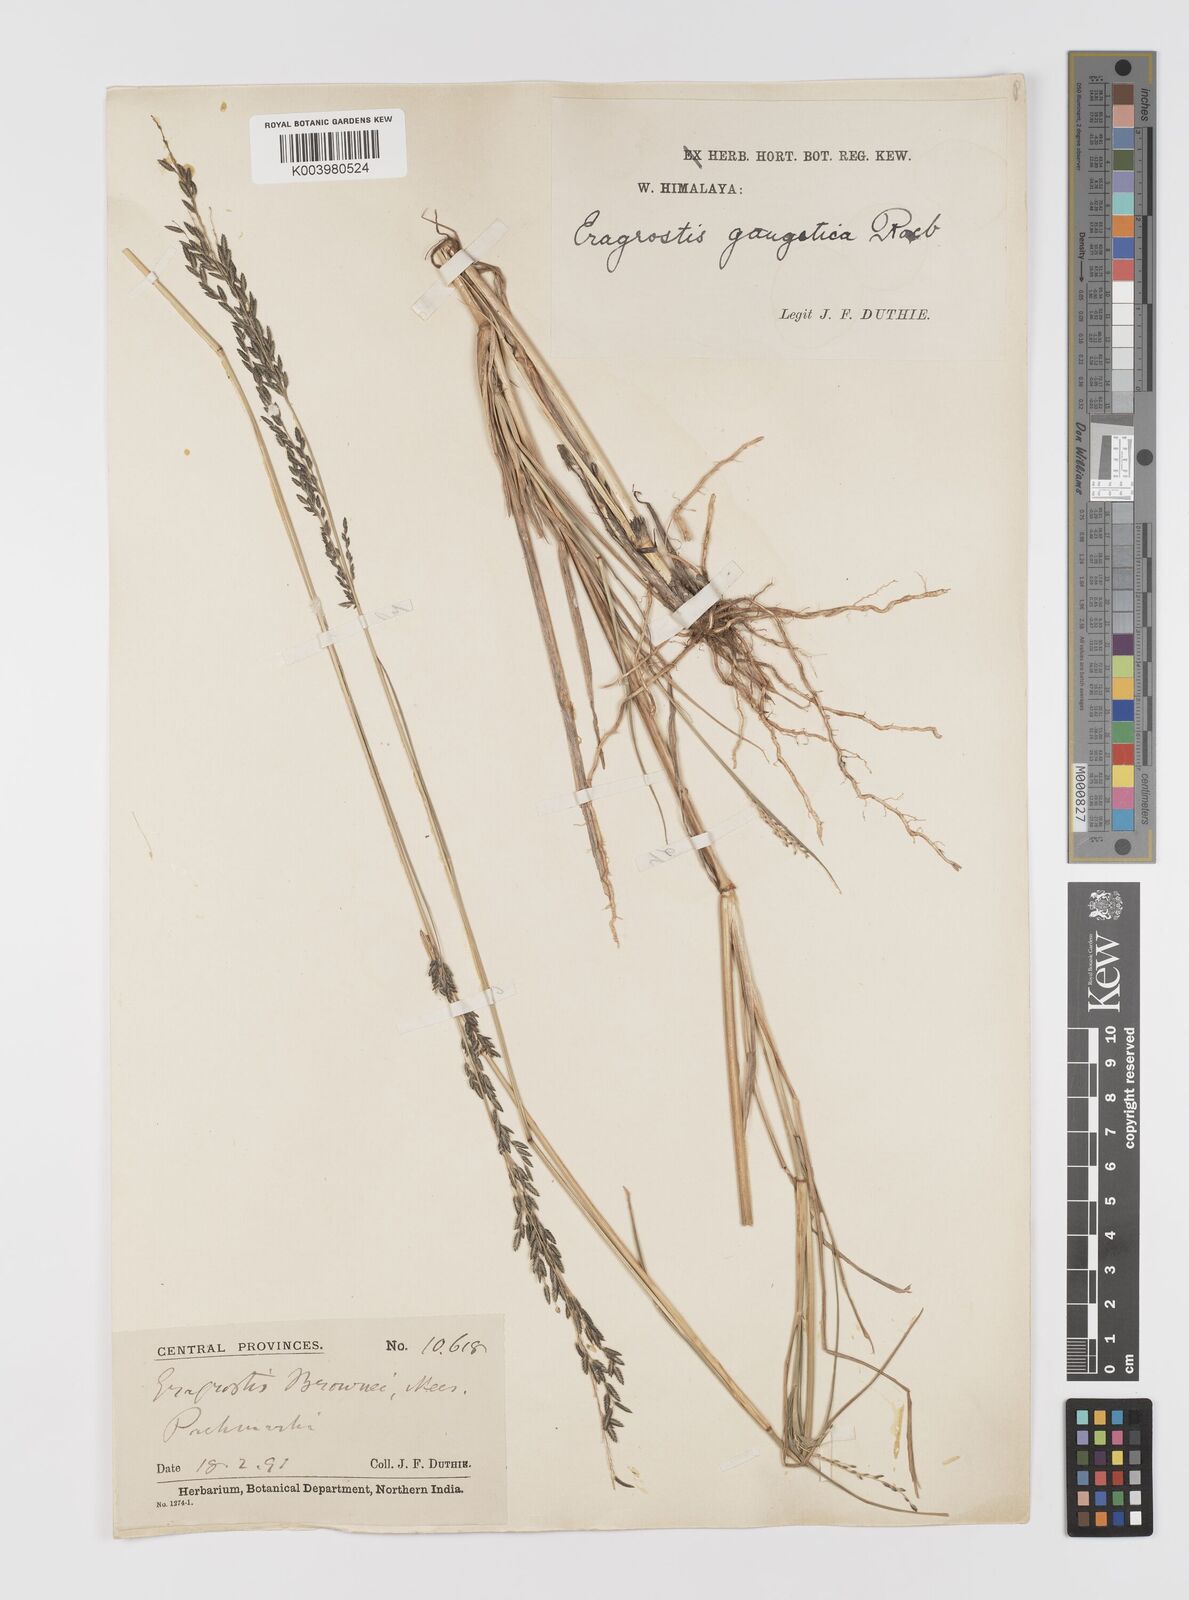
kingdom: Plantae
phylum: Tracheophyta
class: Liliopsida
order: Poales
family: Poaceae
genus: Eragrostis
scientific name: Eragrostis
